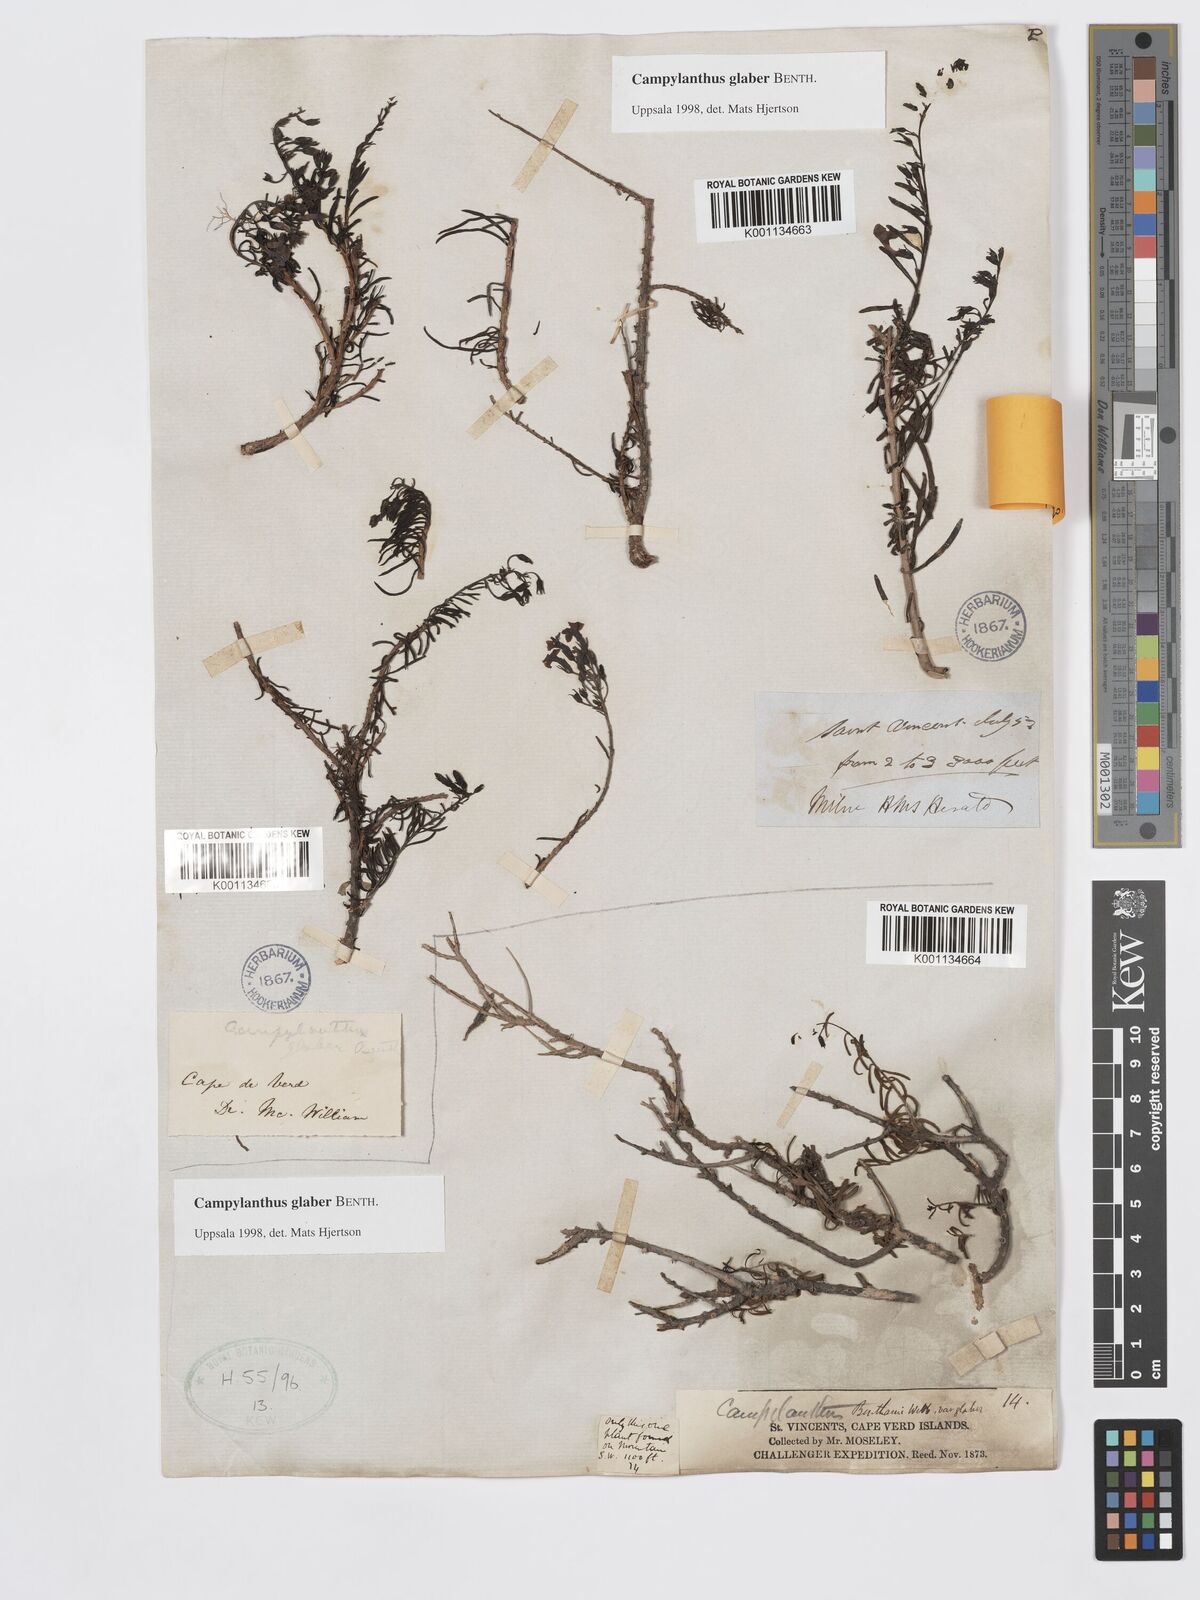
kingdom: Plantae
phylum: Tracheophyta
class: Magnoliopsida
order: Lamiales
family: Plantaginaceae
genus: Campylanthus
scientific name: Campylanthus glaber
